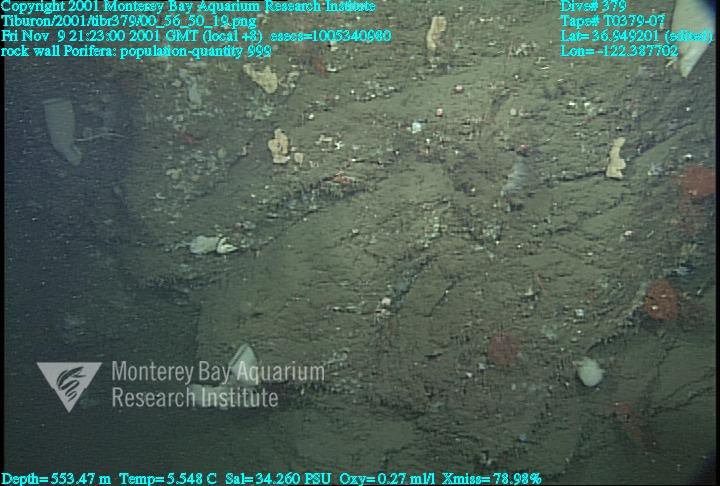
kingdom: Animalia
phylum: Porifera
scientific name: Porifera
